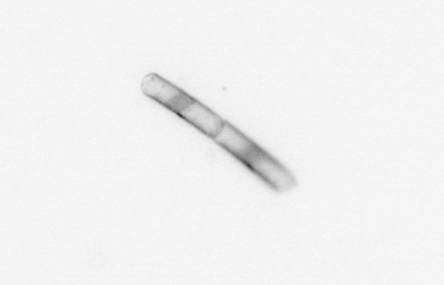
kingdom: Chromista
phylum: Ochrophyta
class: Bacillariophyceae
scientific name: Bacillariophyceae
